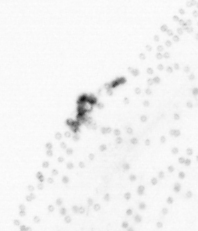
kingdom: Chromista
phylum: Ochrophyta
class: Bacillariophyceae
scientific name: Bacillariophyceae
